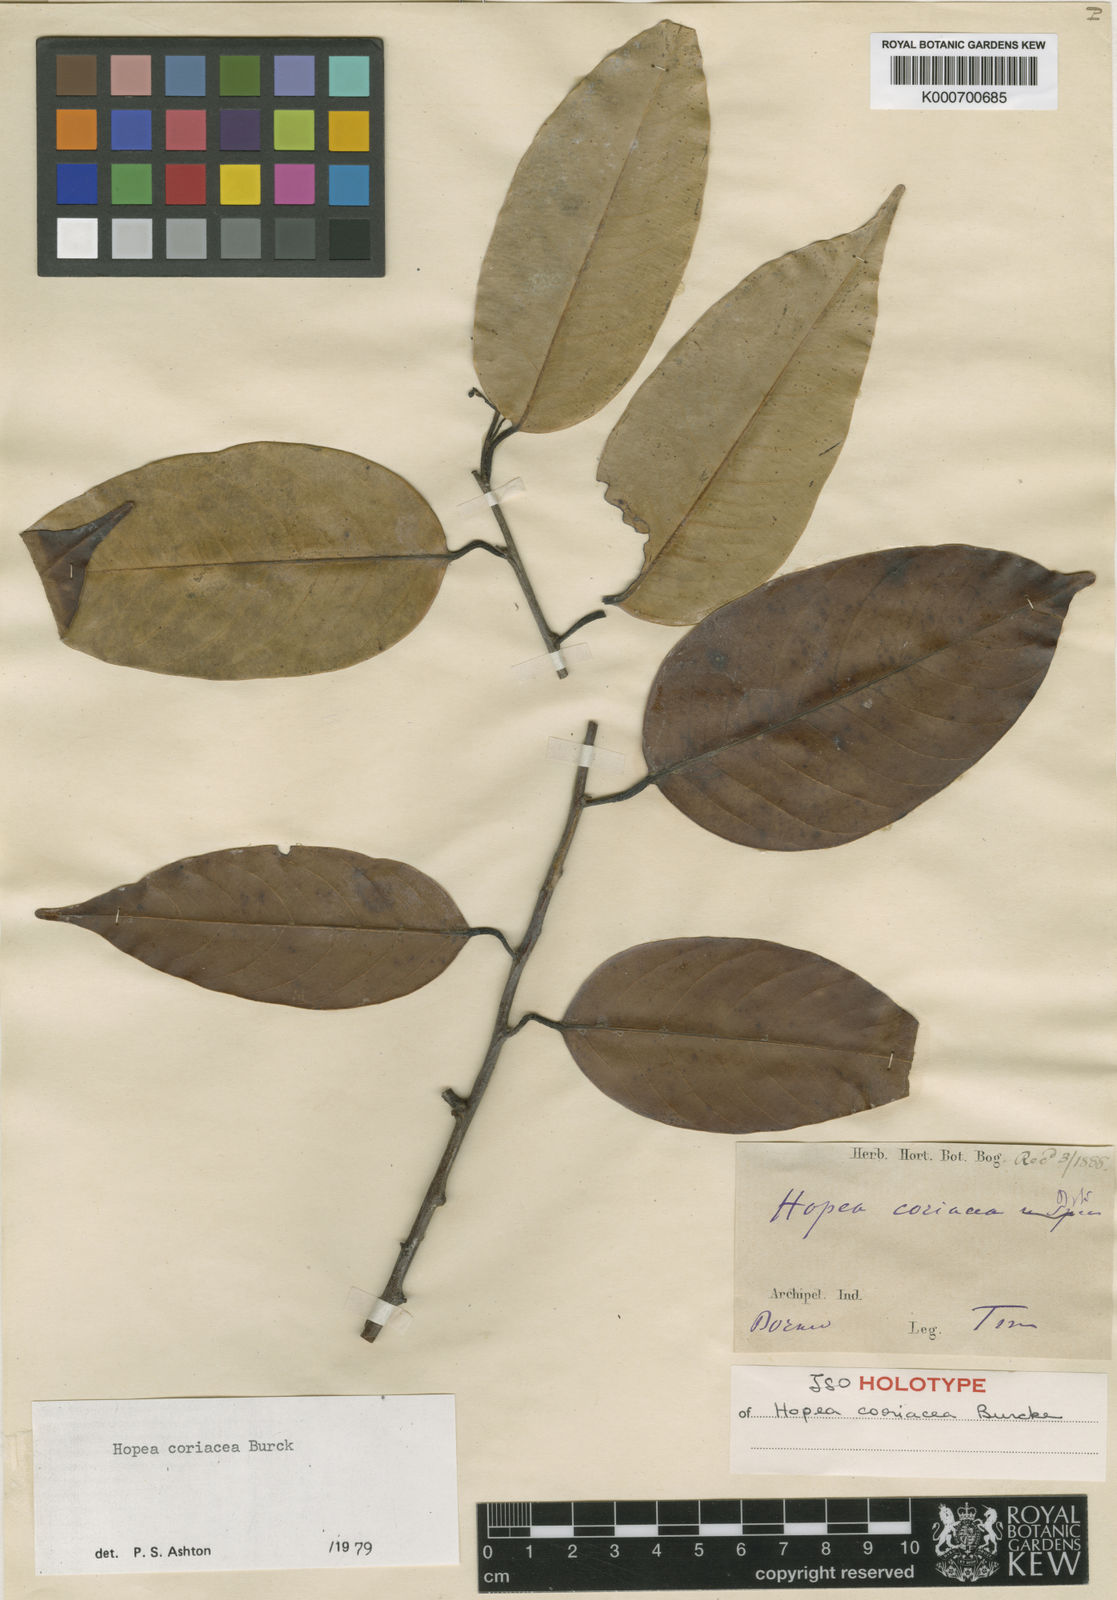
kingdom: Plantae
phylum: Tracheophyta
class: Magnoliopsida
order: Malvales
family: Dipterocarpaceae
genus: Hopea
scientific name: Hopea coriacea
